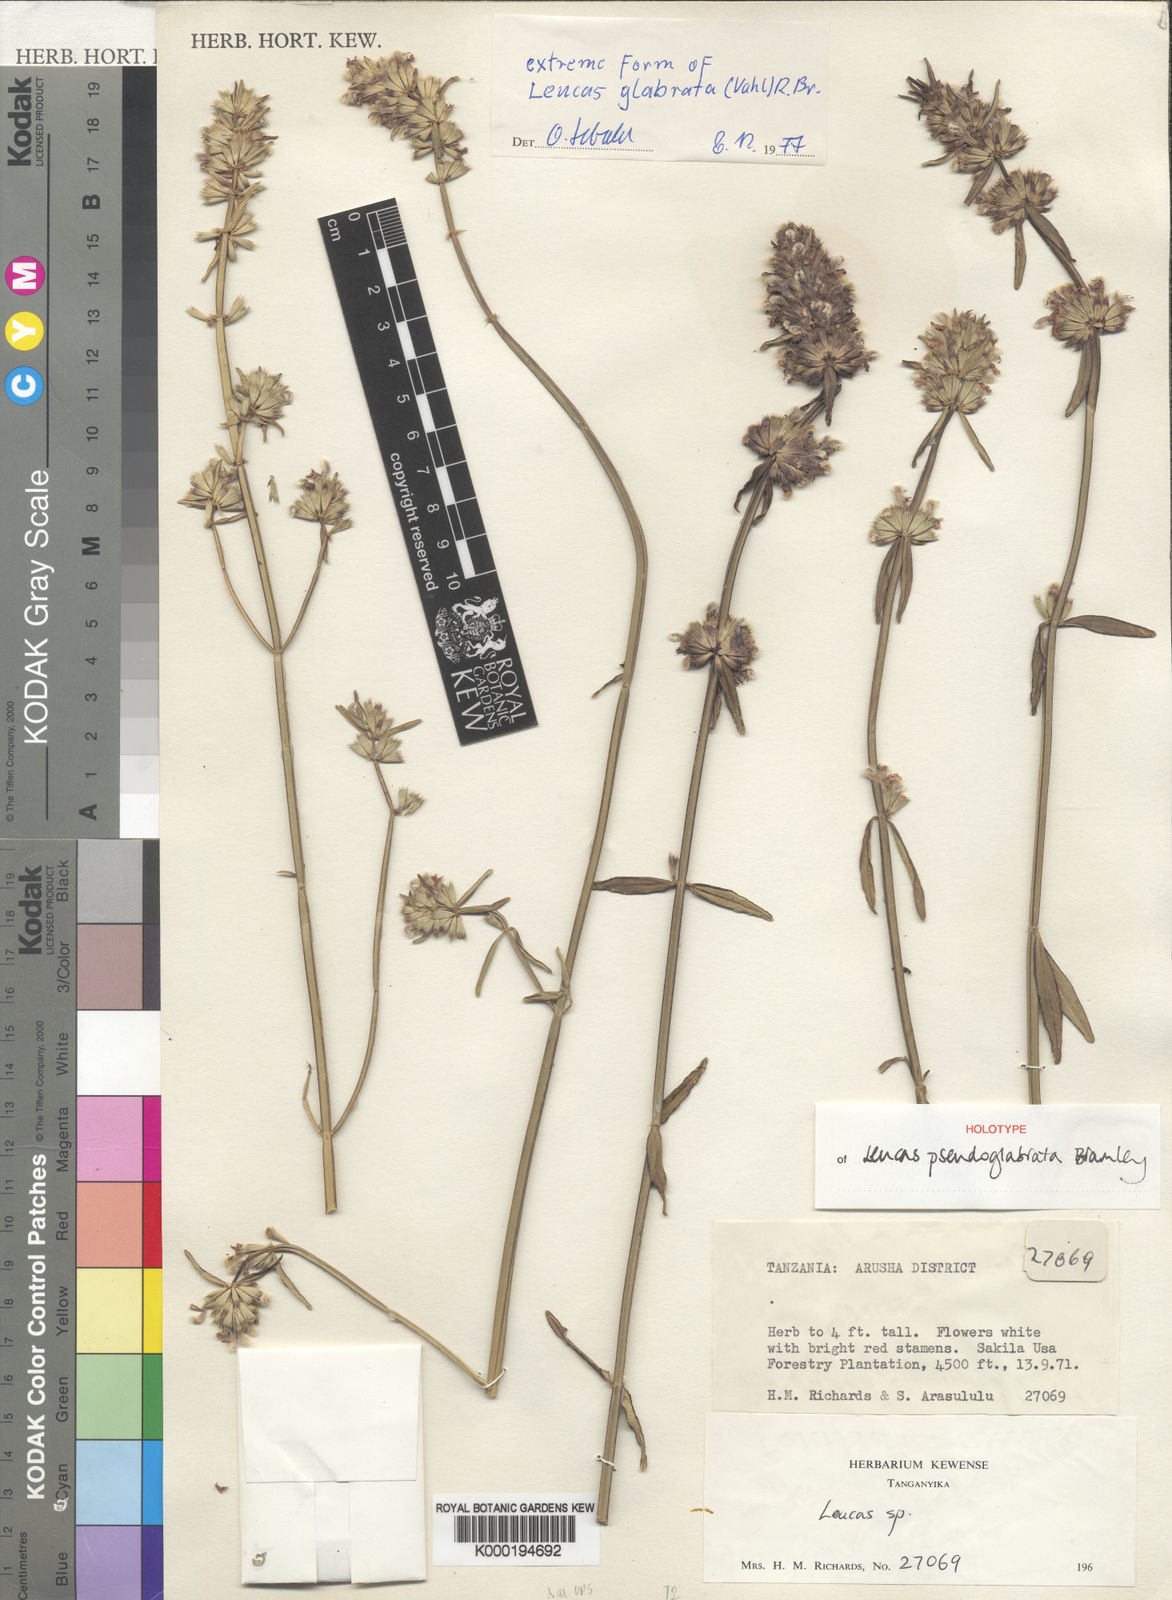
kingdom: Plantae
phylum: Tracheophyta
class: Magnoliopsida
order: Lamiales
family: Lamiaceae
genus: Leucas
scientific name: Leucas pseudoglabrata
